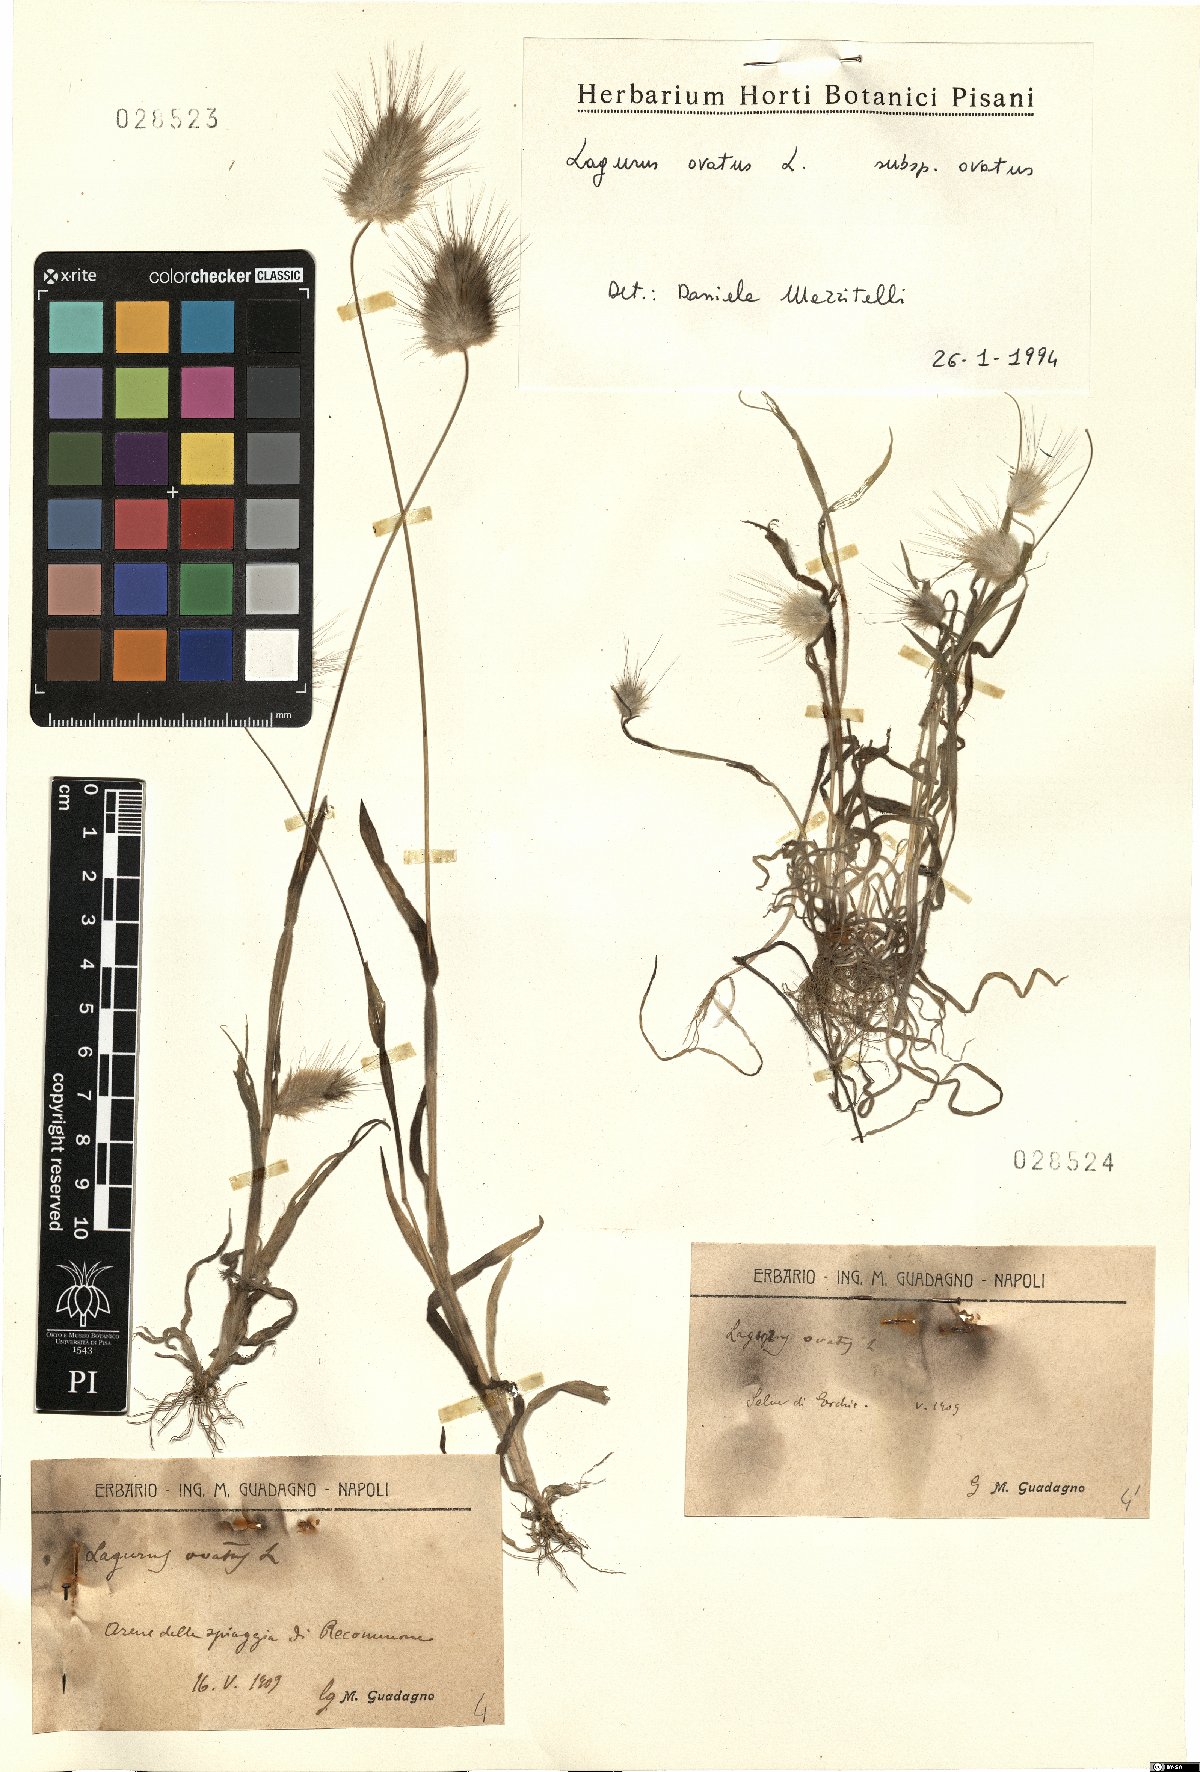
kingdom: Plantae
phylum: Tracheophyta
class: Liliopsida
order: Poales
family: Poaceae
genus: Lagurus
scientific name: Lagurus ovatus
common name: Hare's-tail
